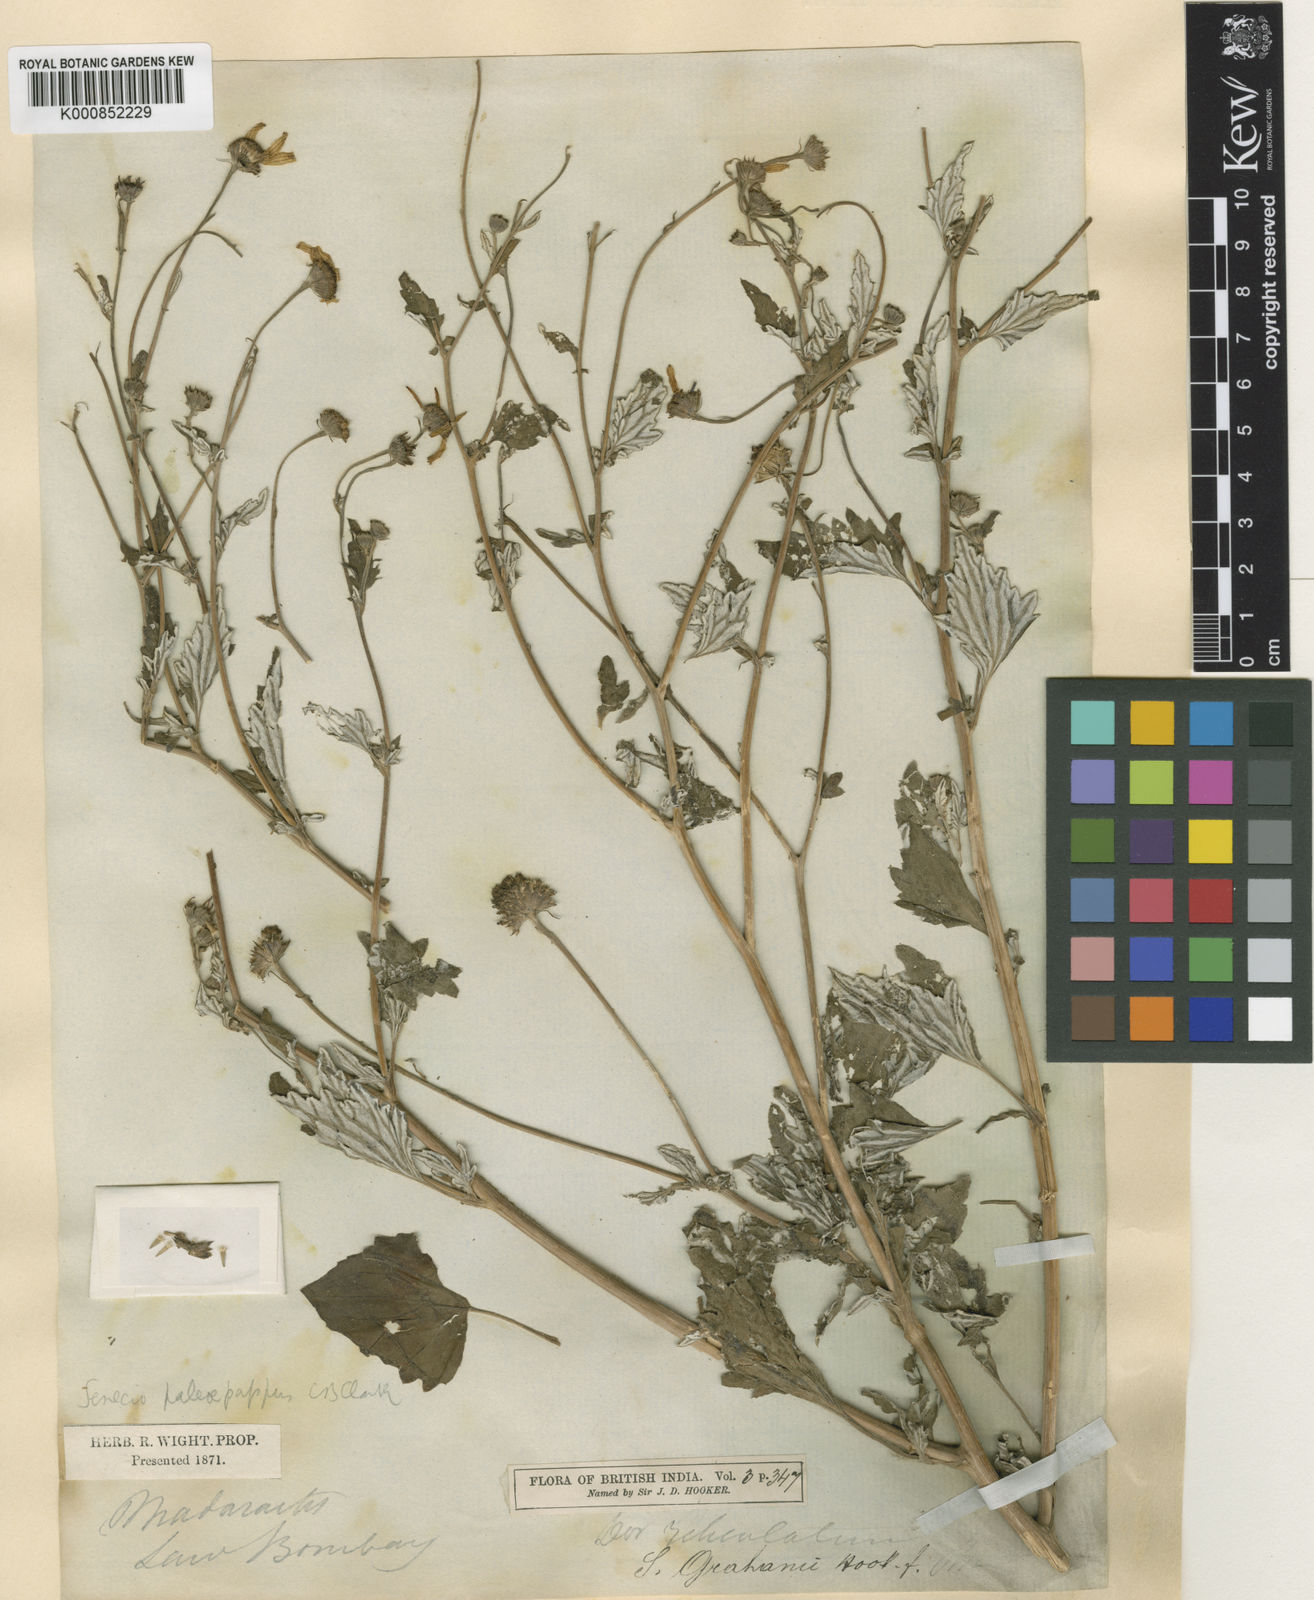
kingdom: Plantae
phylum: Tracheophyta
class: Magnoliopsida
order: Asterales
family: Asteraceae
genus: Senecio
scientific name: Senecio bombayensis
